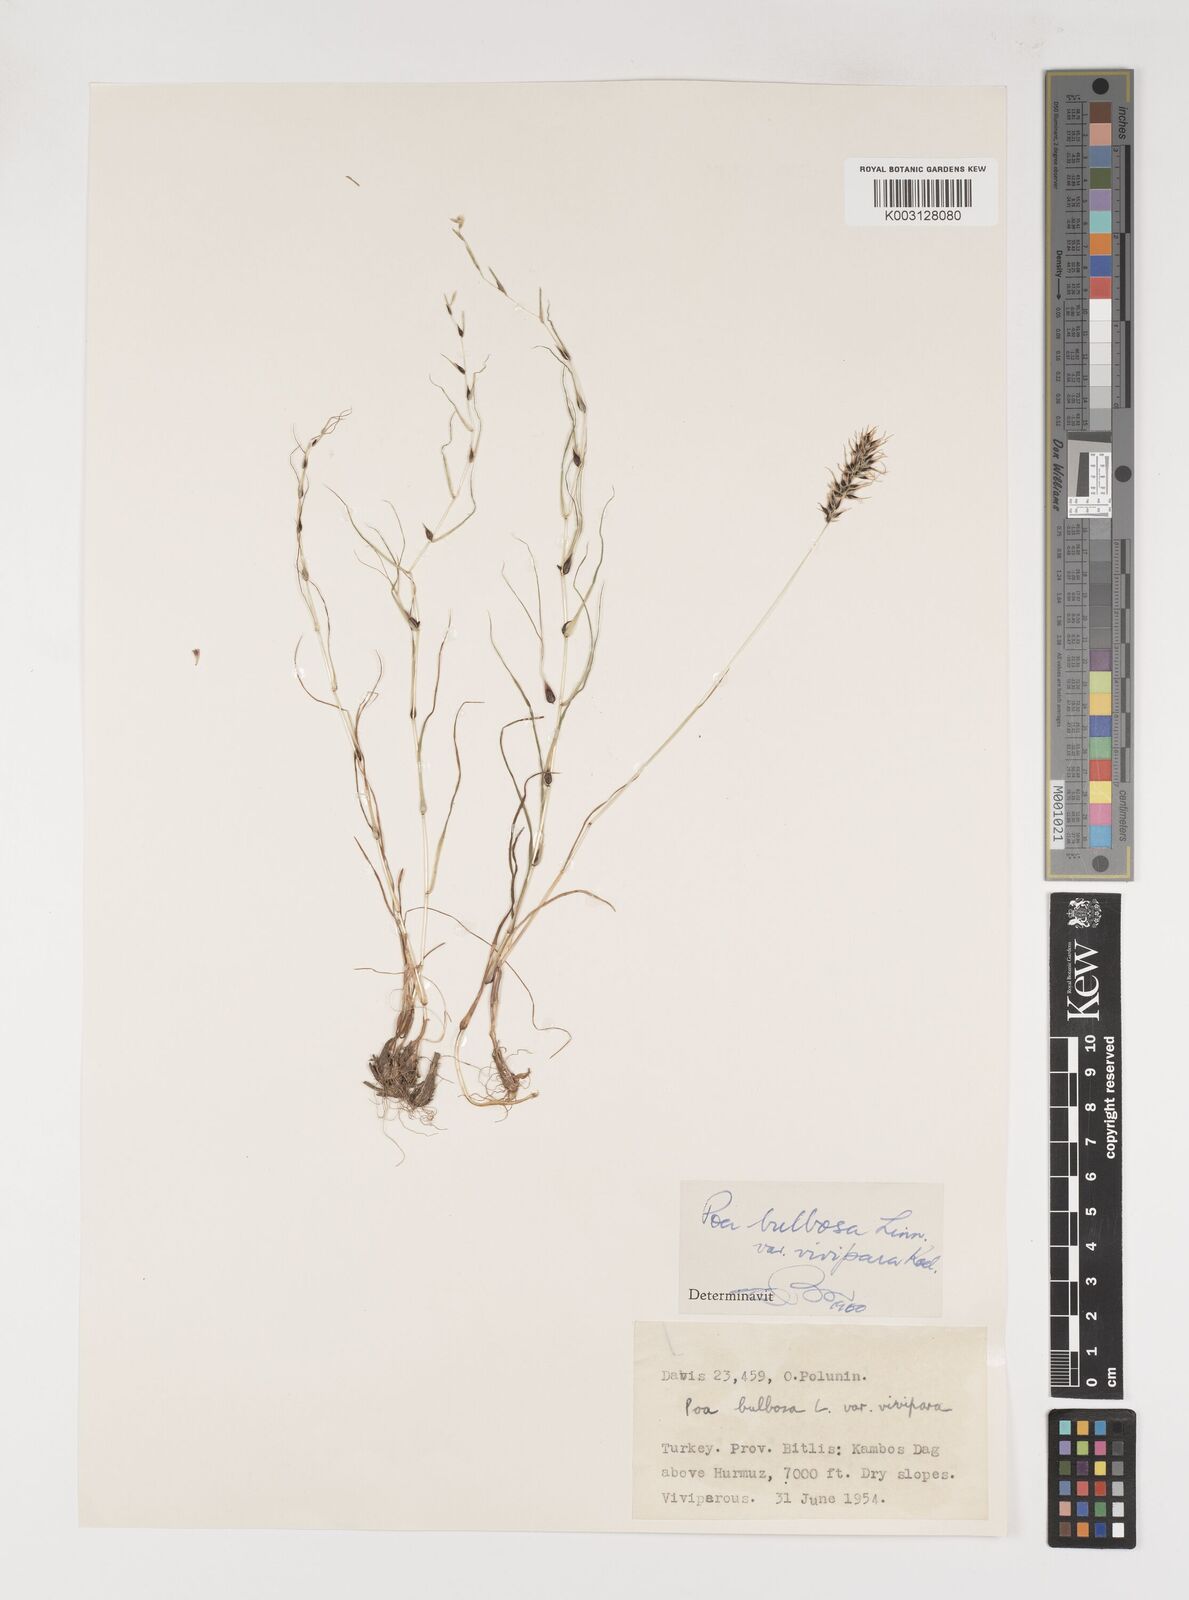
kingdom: Plantae
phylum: Tracheophyta
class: Liliopsida
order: Poales
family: Poaceae
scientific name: Poaceae
